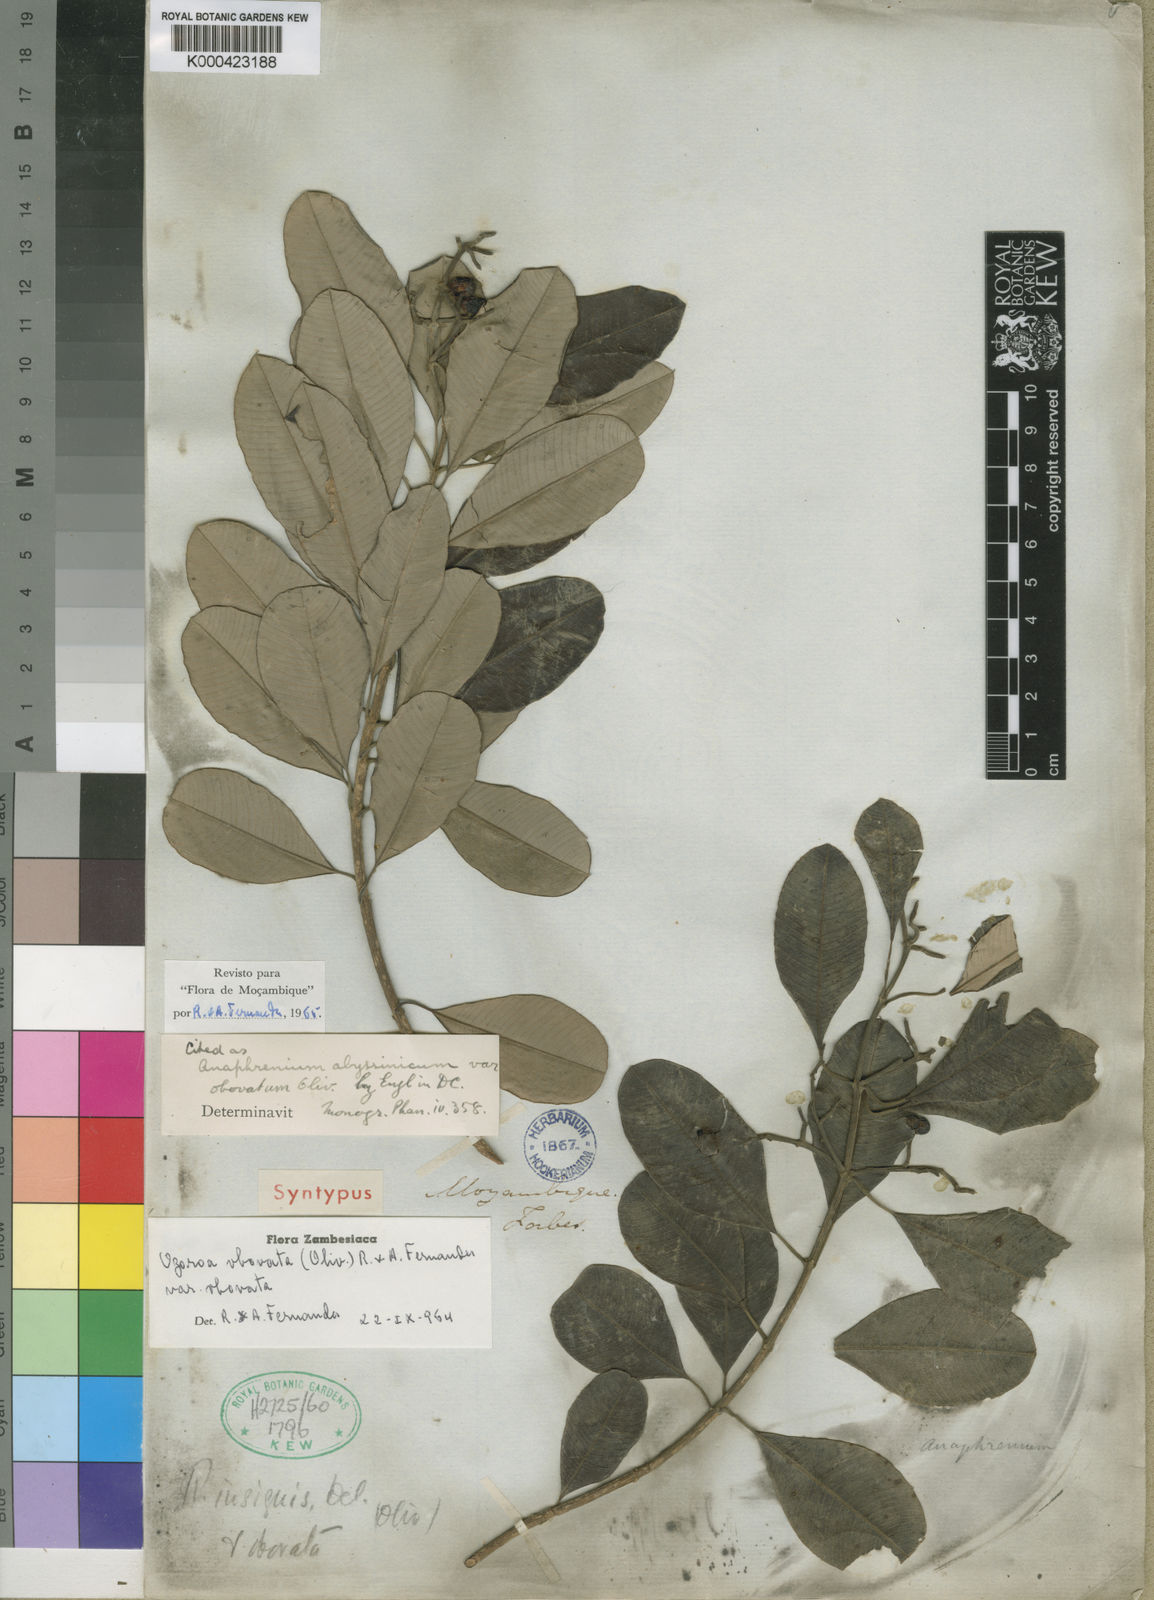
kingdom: Plantae
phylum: Tracheophyta
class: Magnoliopsida
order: Sapindales
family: Anacardiaceae
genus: Ozoroa
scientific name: Ozoroa obovata
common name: Broad-leaved resin tree
